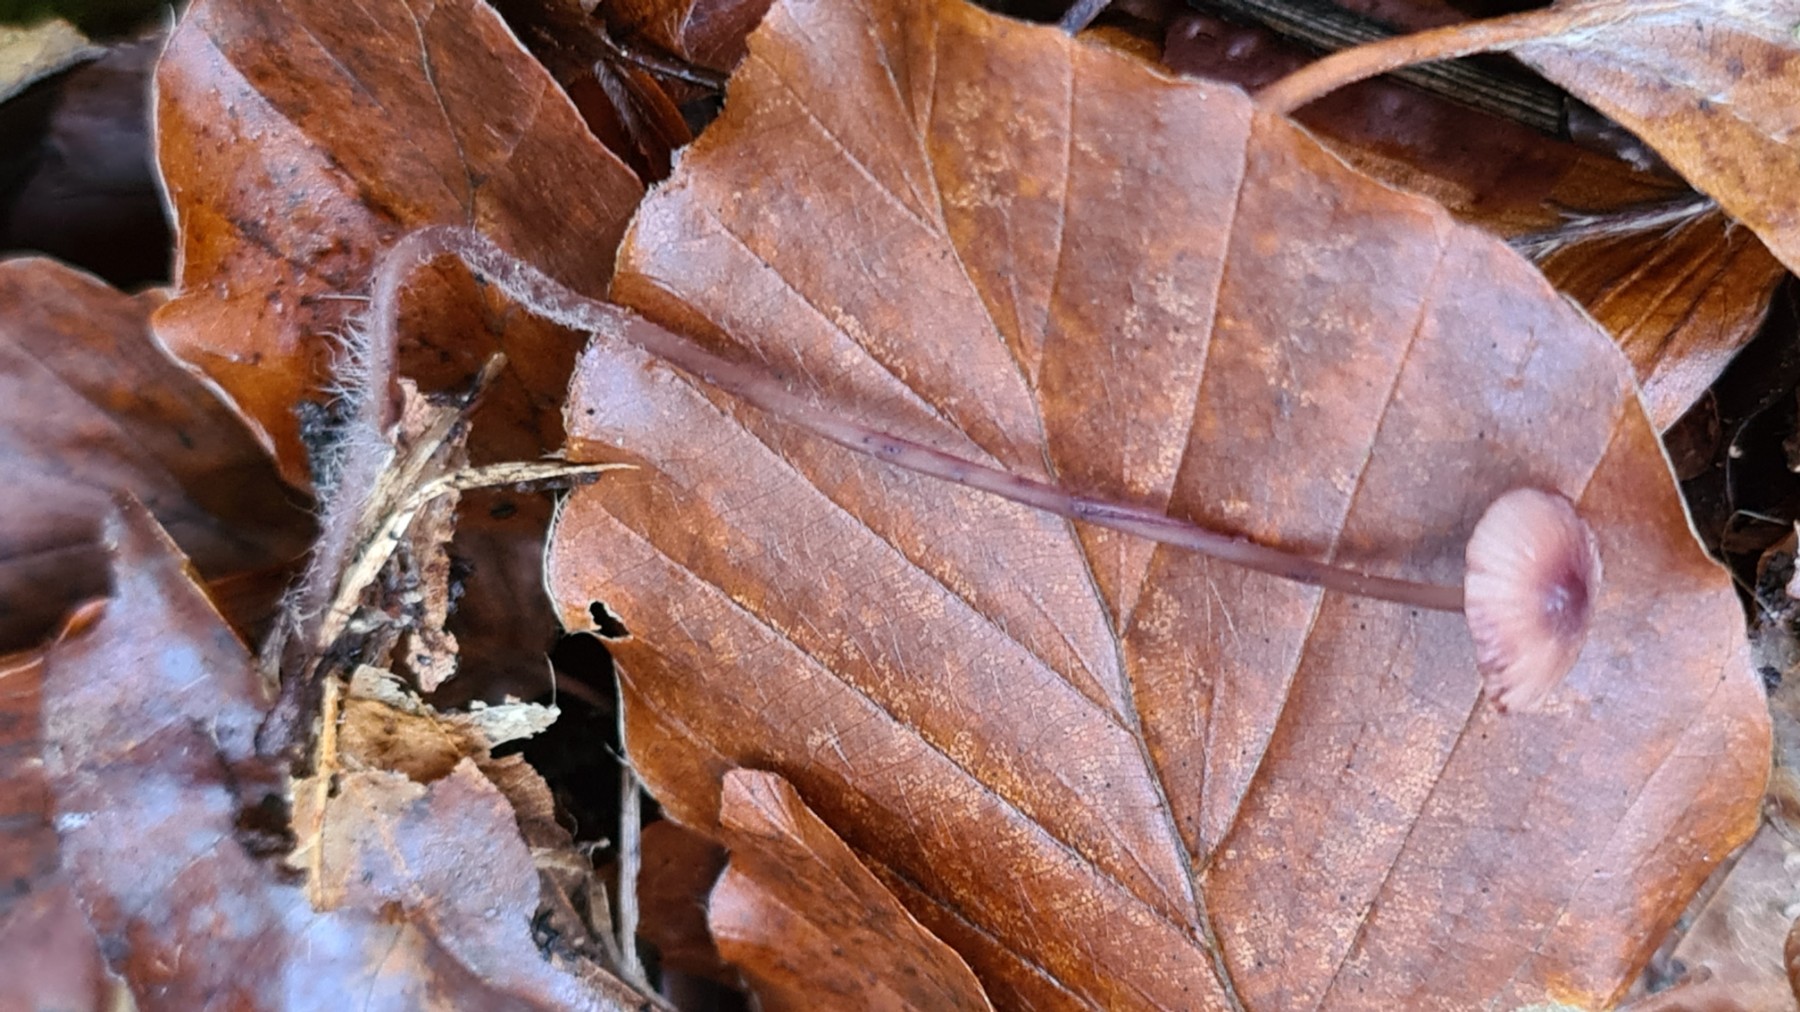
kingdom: Fungi
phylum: Basidiomycota
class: Agaricomycetes
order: Agaricales
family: Mycenaceae
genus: Mycena
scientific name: Mycena sanguinolenta
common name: rødmælket huesvamp
